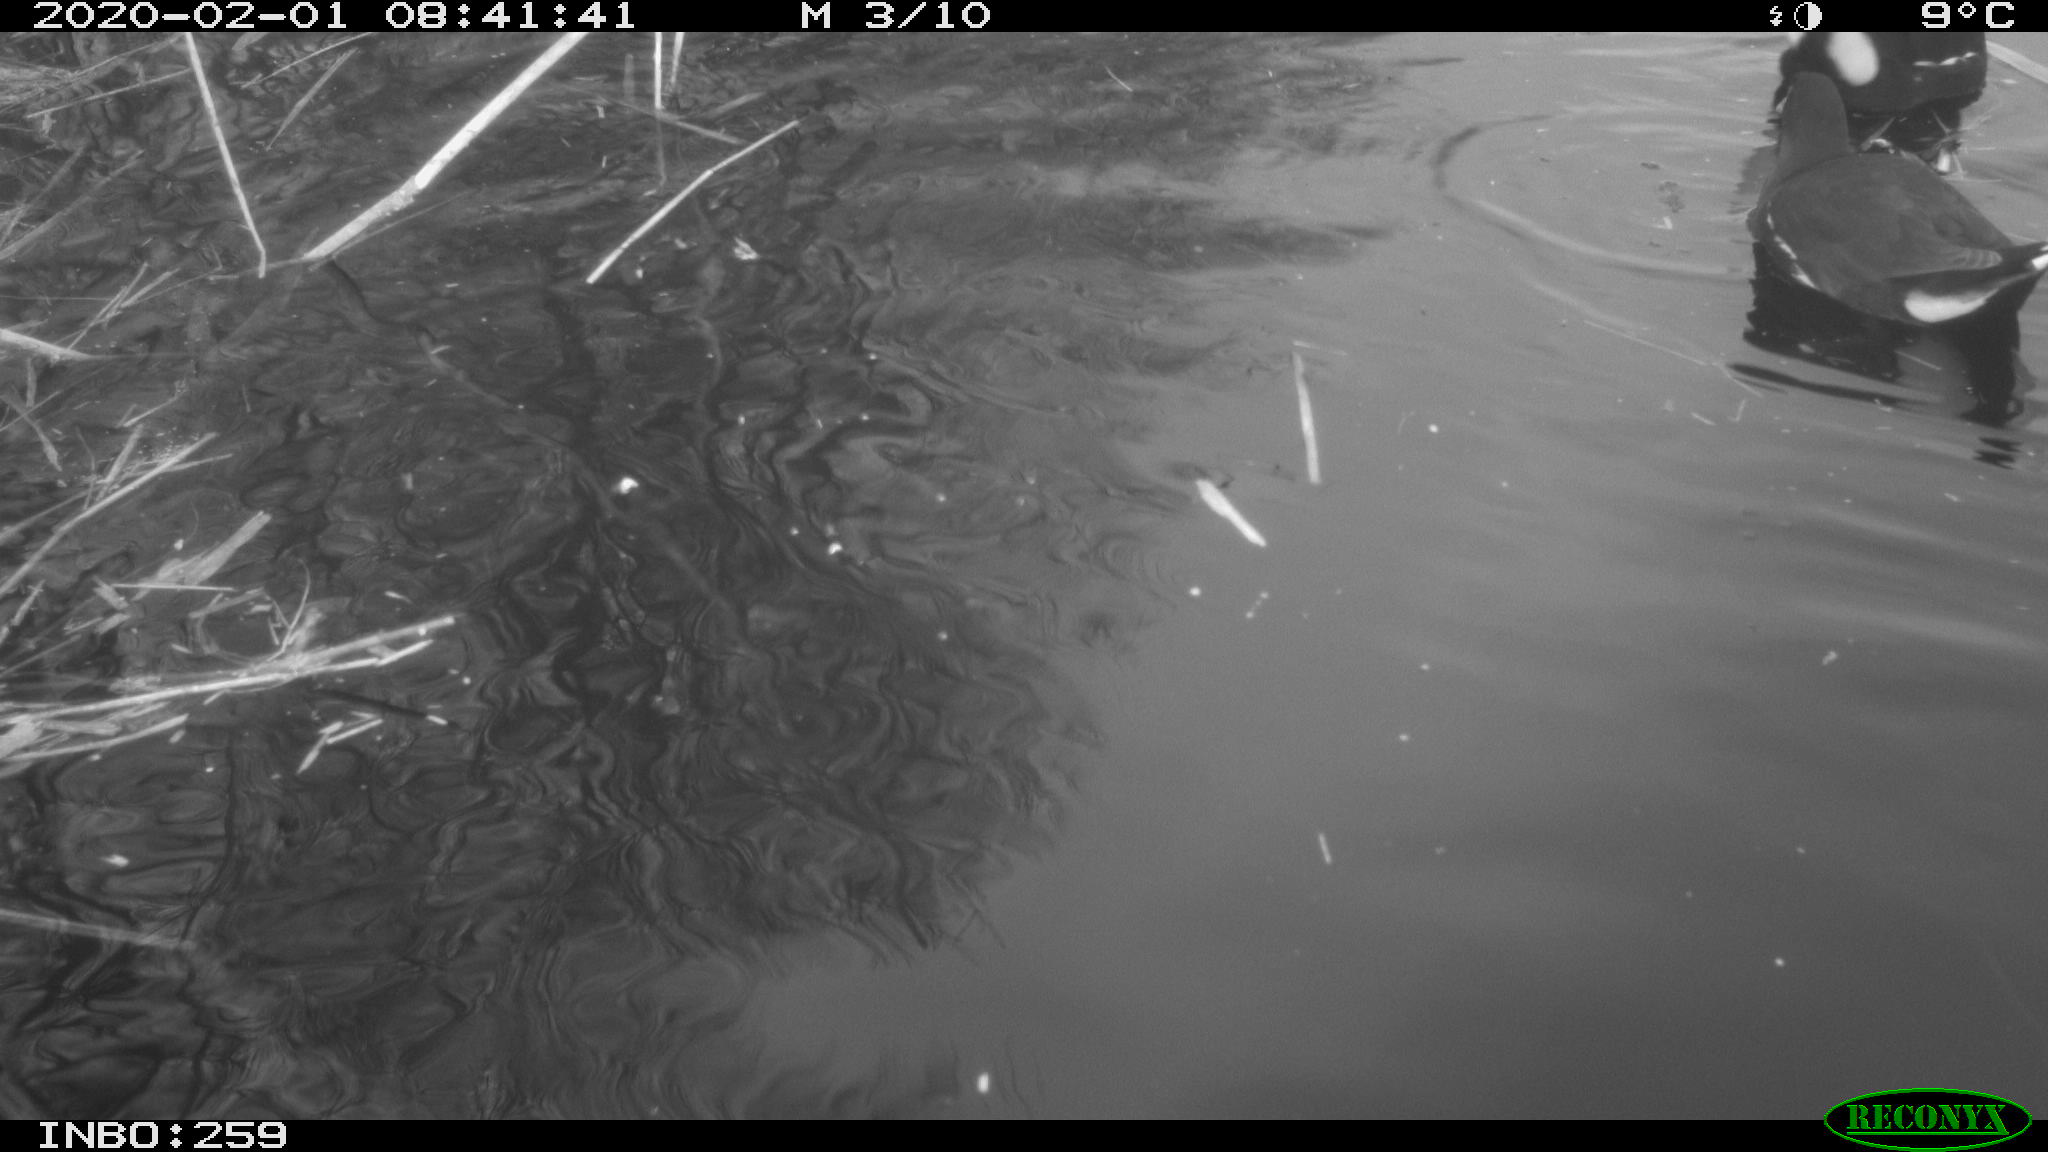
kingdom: Animalia
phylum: Chordata
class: Aves
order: Gruiformes
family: Rallidae
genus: Gallinula
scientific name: Gallinula chloropus
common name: Common moorhen
